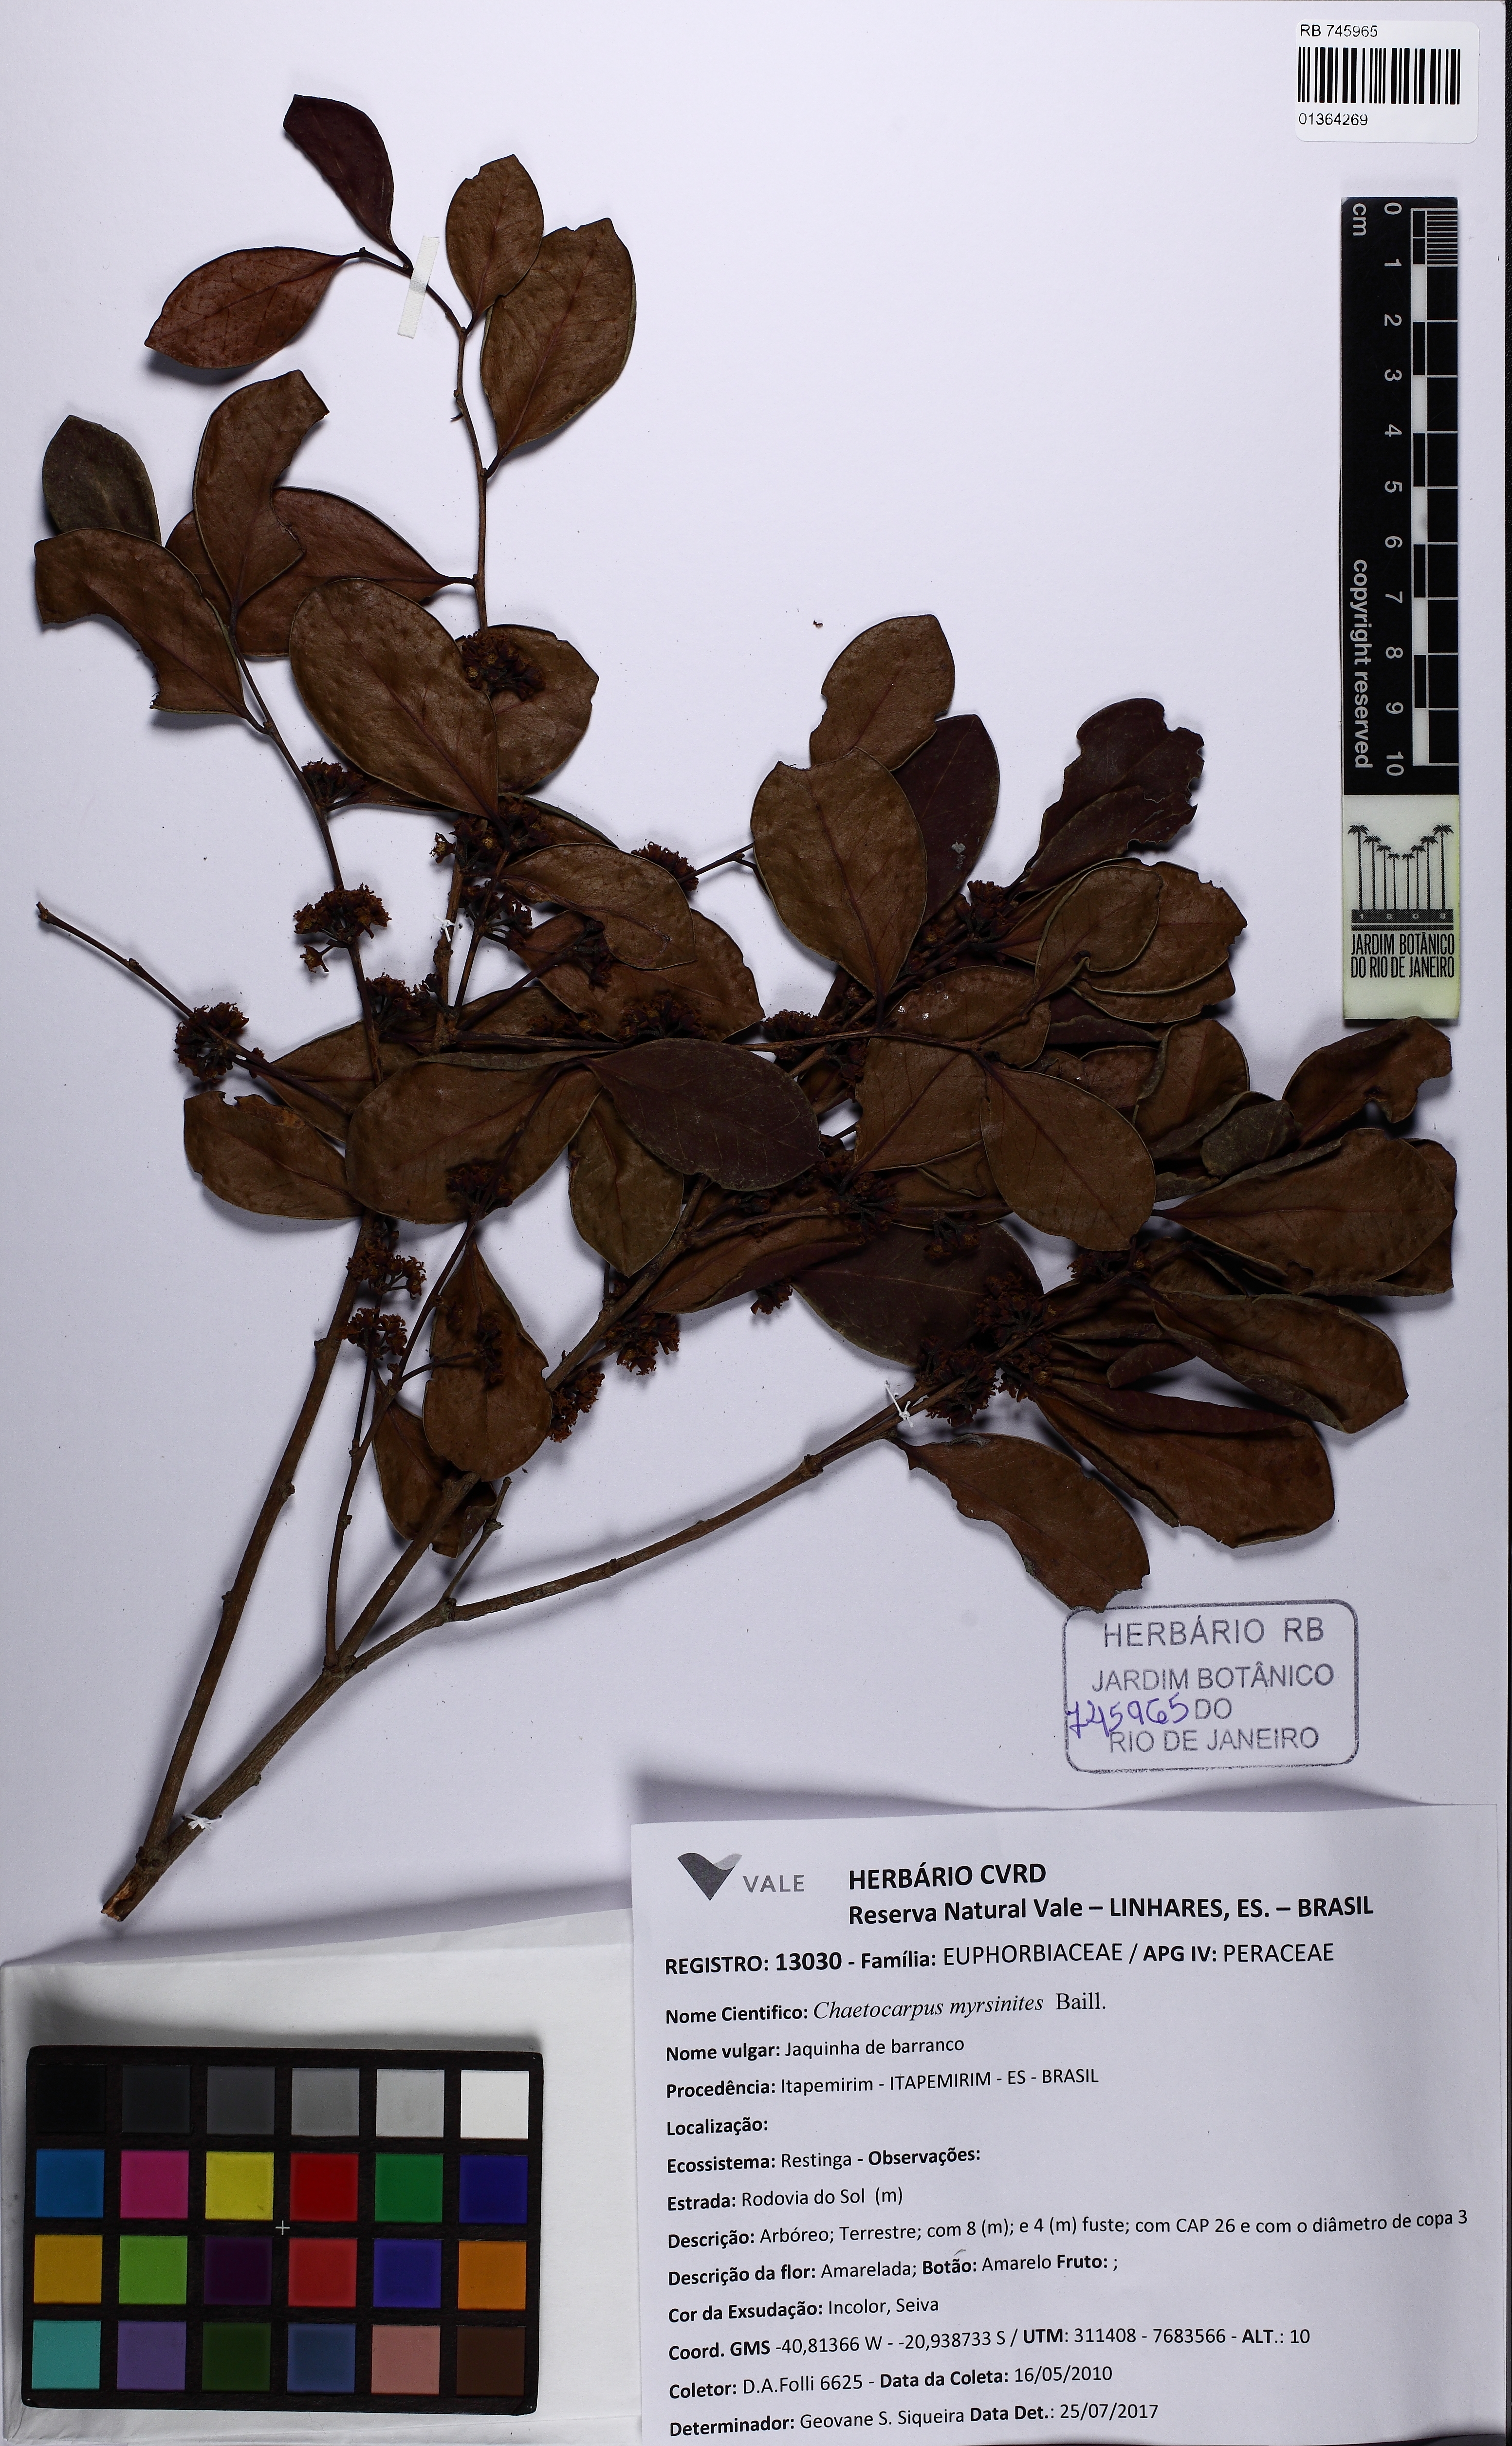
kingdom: Plantae
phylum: Tracheophyta
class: Magnoliopsida
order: Malpighiales
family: Peraceae
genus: Chaetocarpus
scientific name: Chaetocarpus myrsinites
